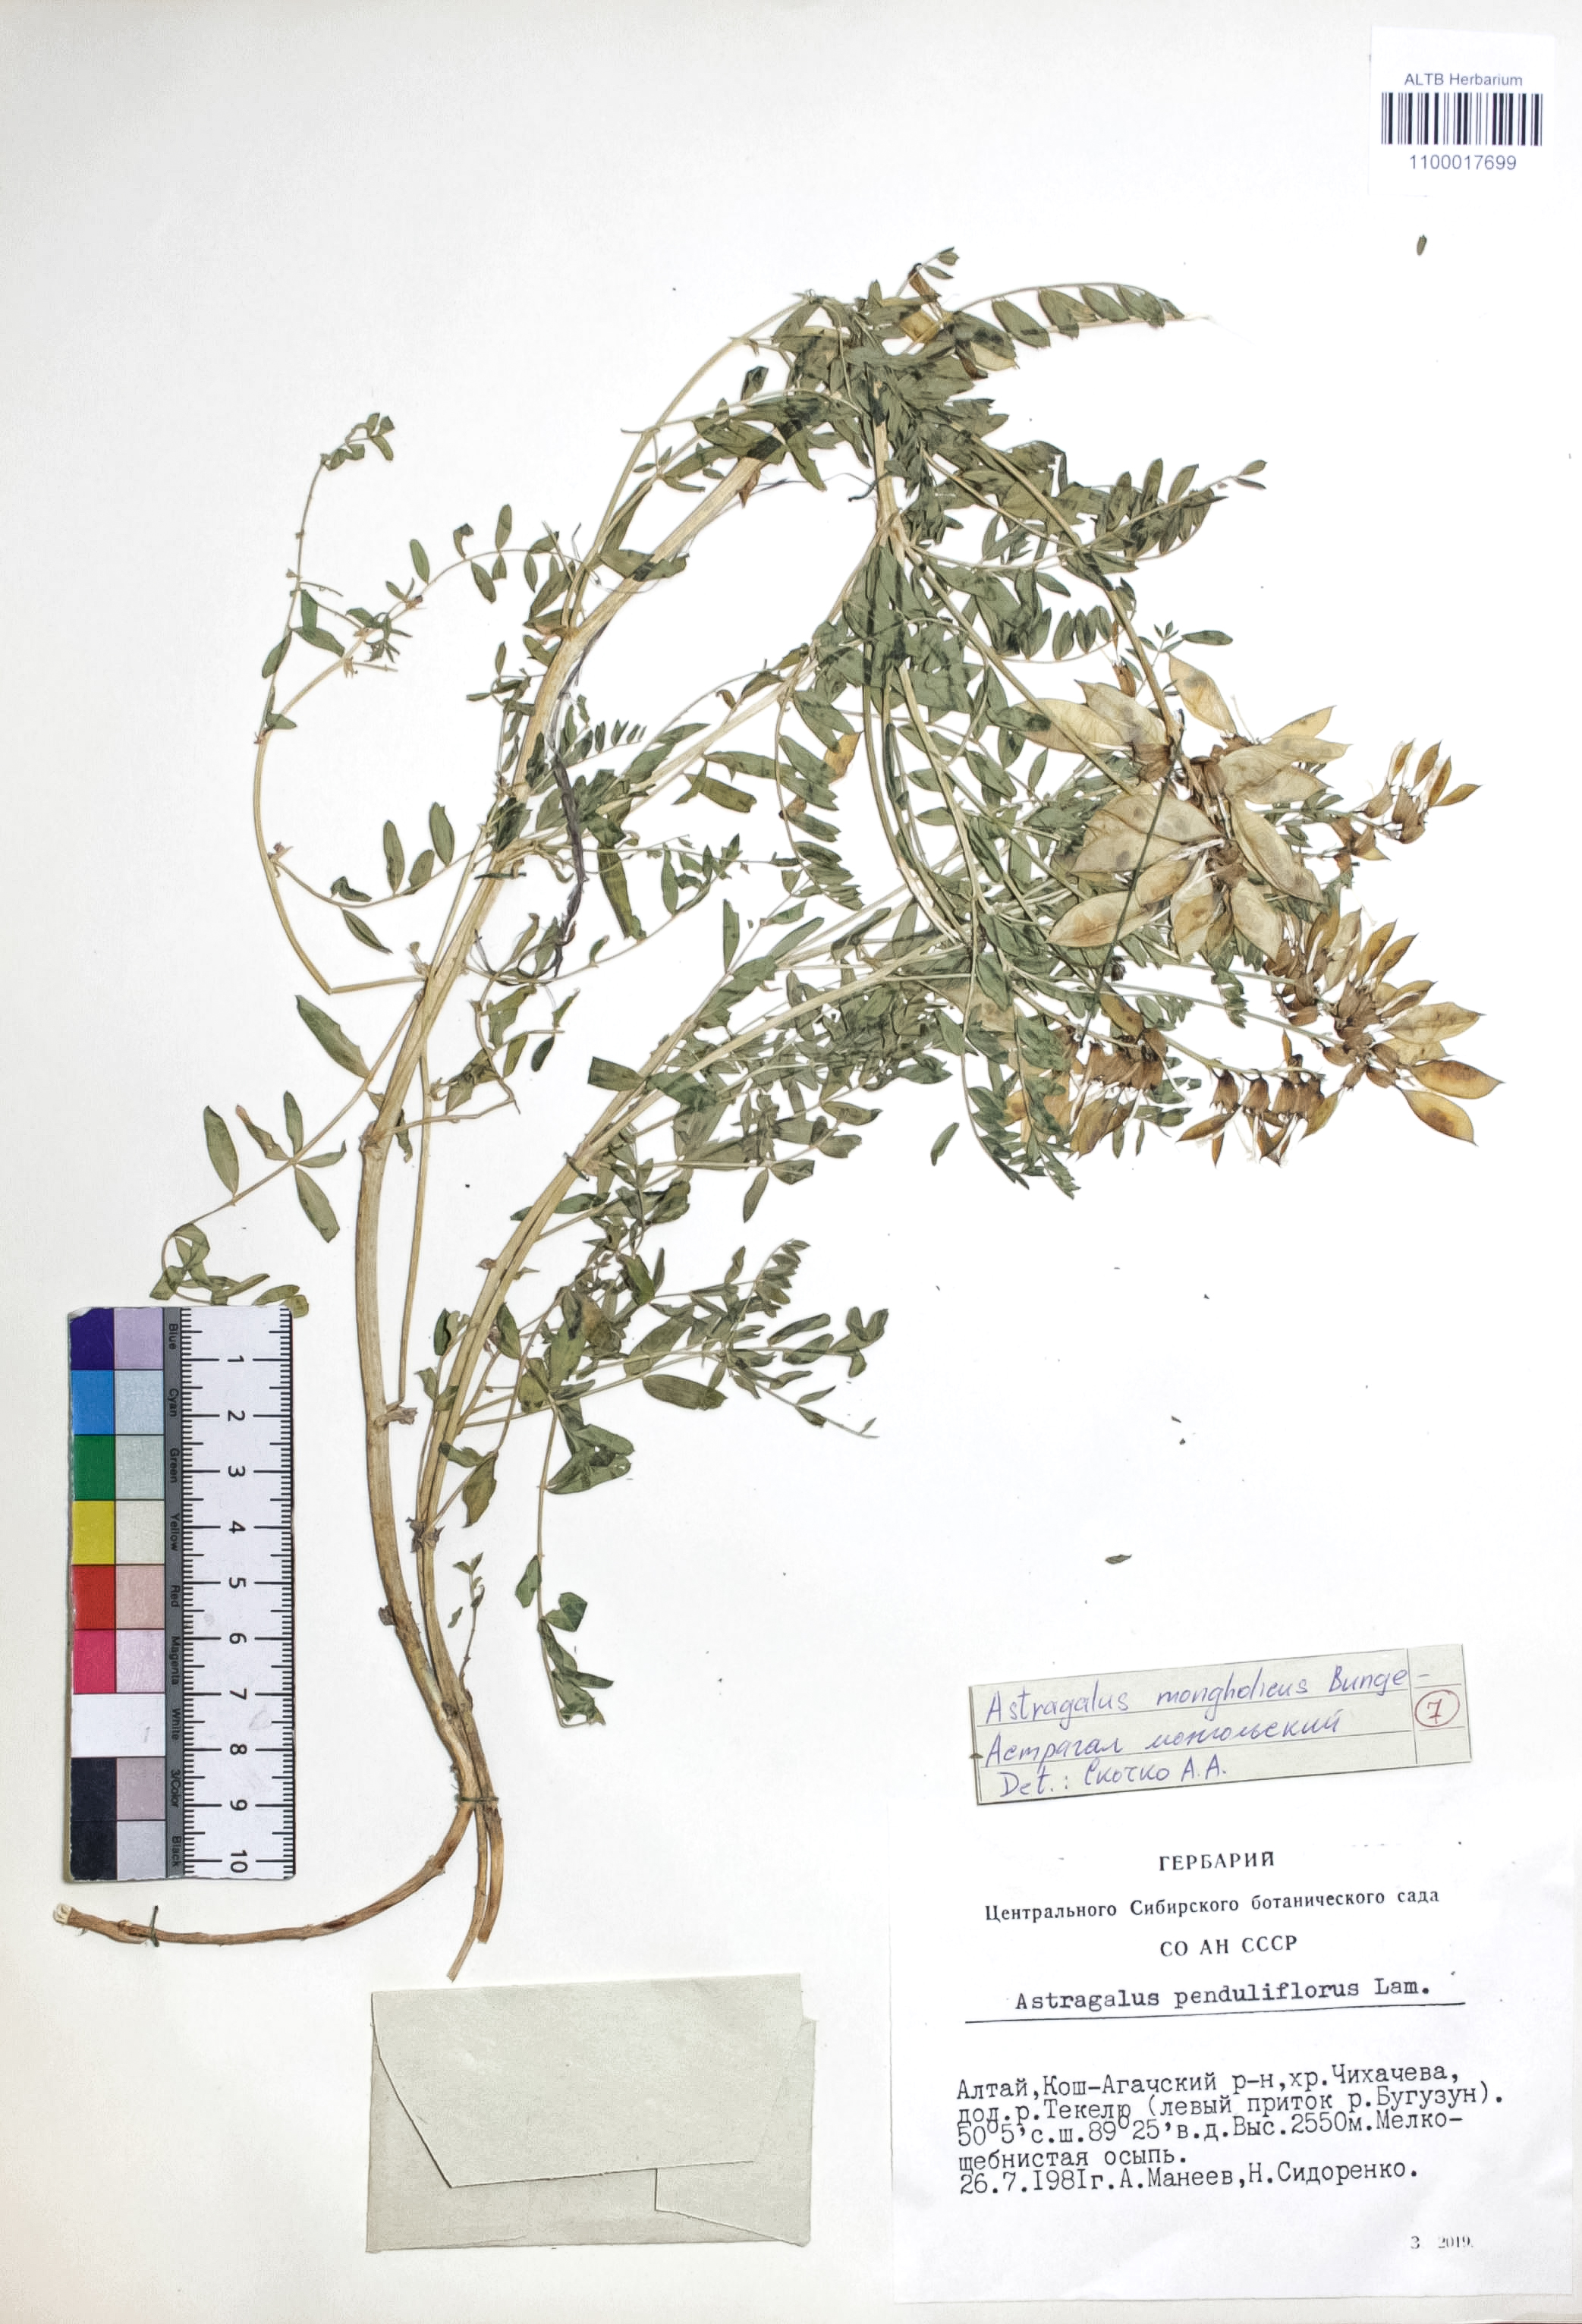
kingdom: Plantae
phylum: Tracheophyta
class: Magnoliopsida
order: Fabales
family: Fabaceae
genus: Astragalus
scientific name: Astragalus mongolicus
